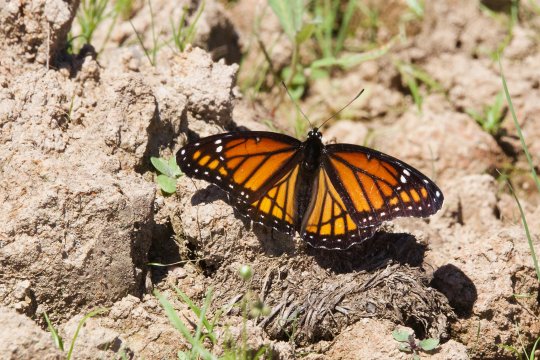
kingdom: Animalia
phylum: Arthropoda
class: Insecta
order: Lepidoptera
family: Nymphalidae
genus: Limenitis
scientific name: Limenitis archippus
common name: Viceroy
